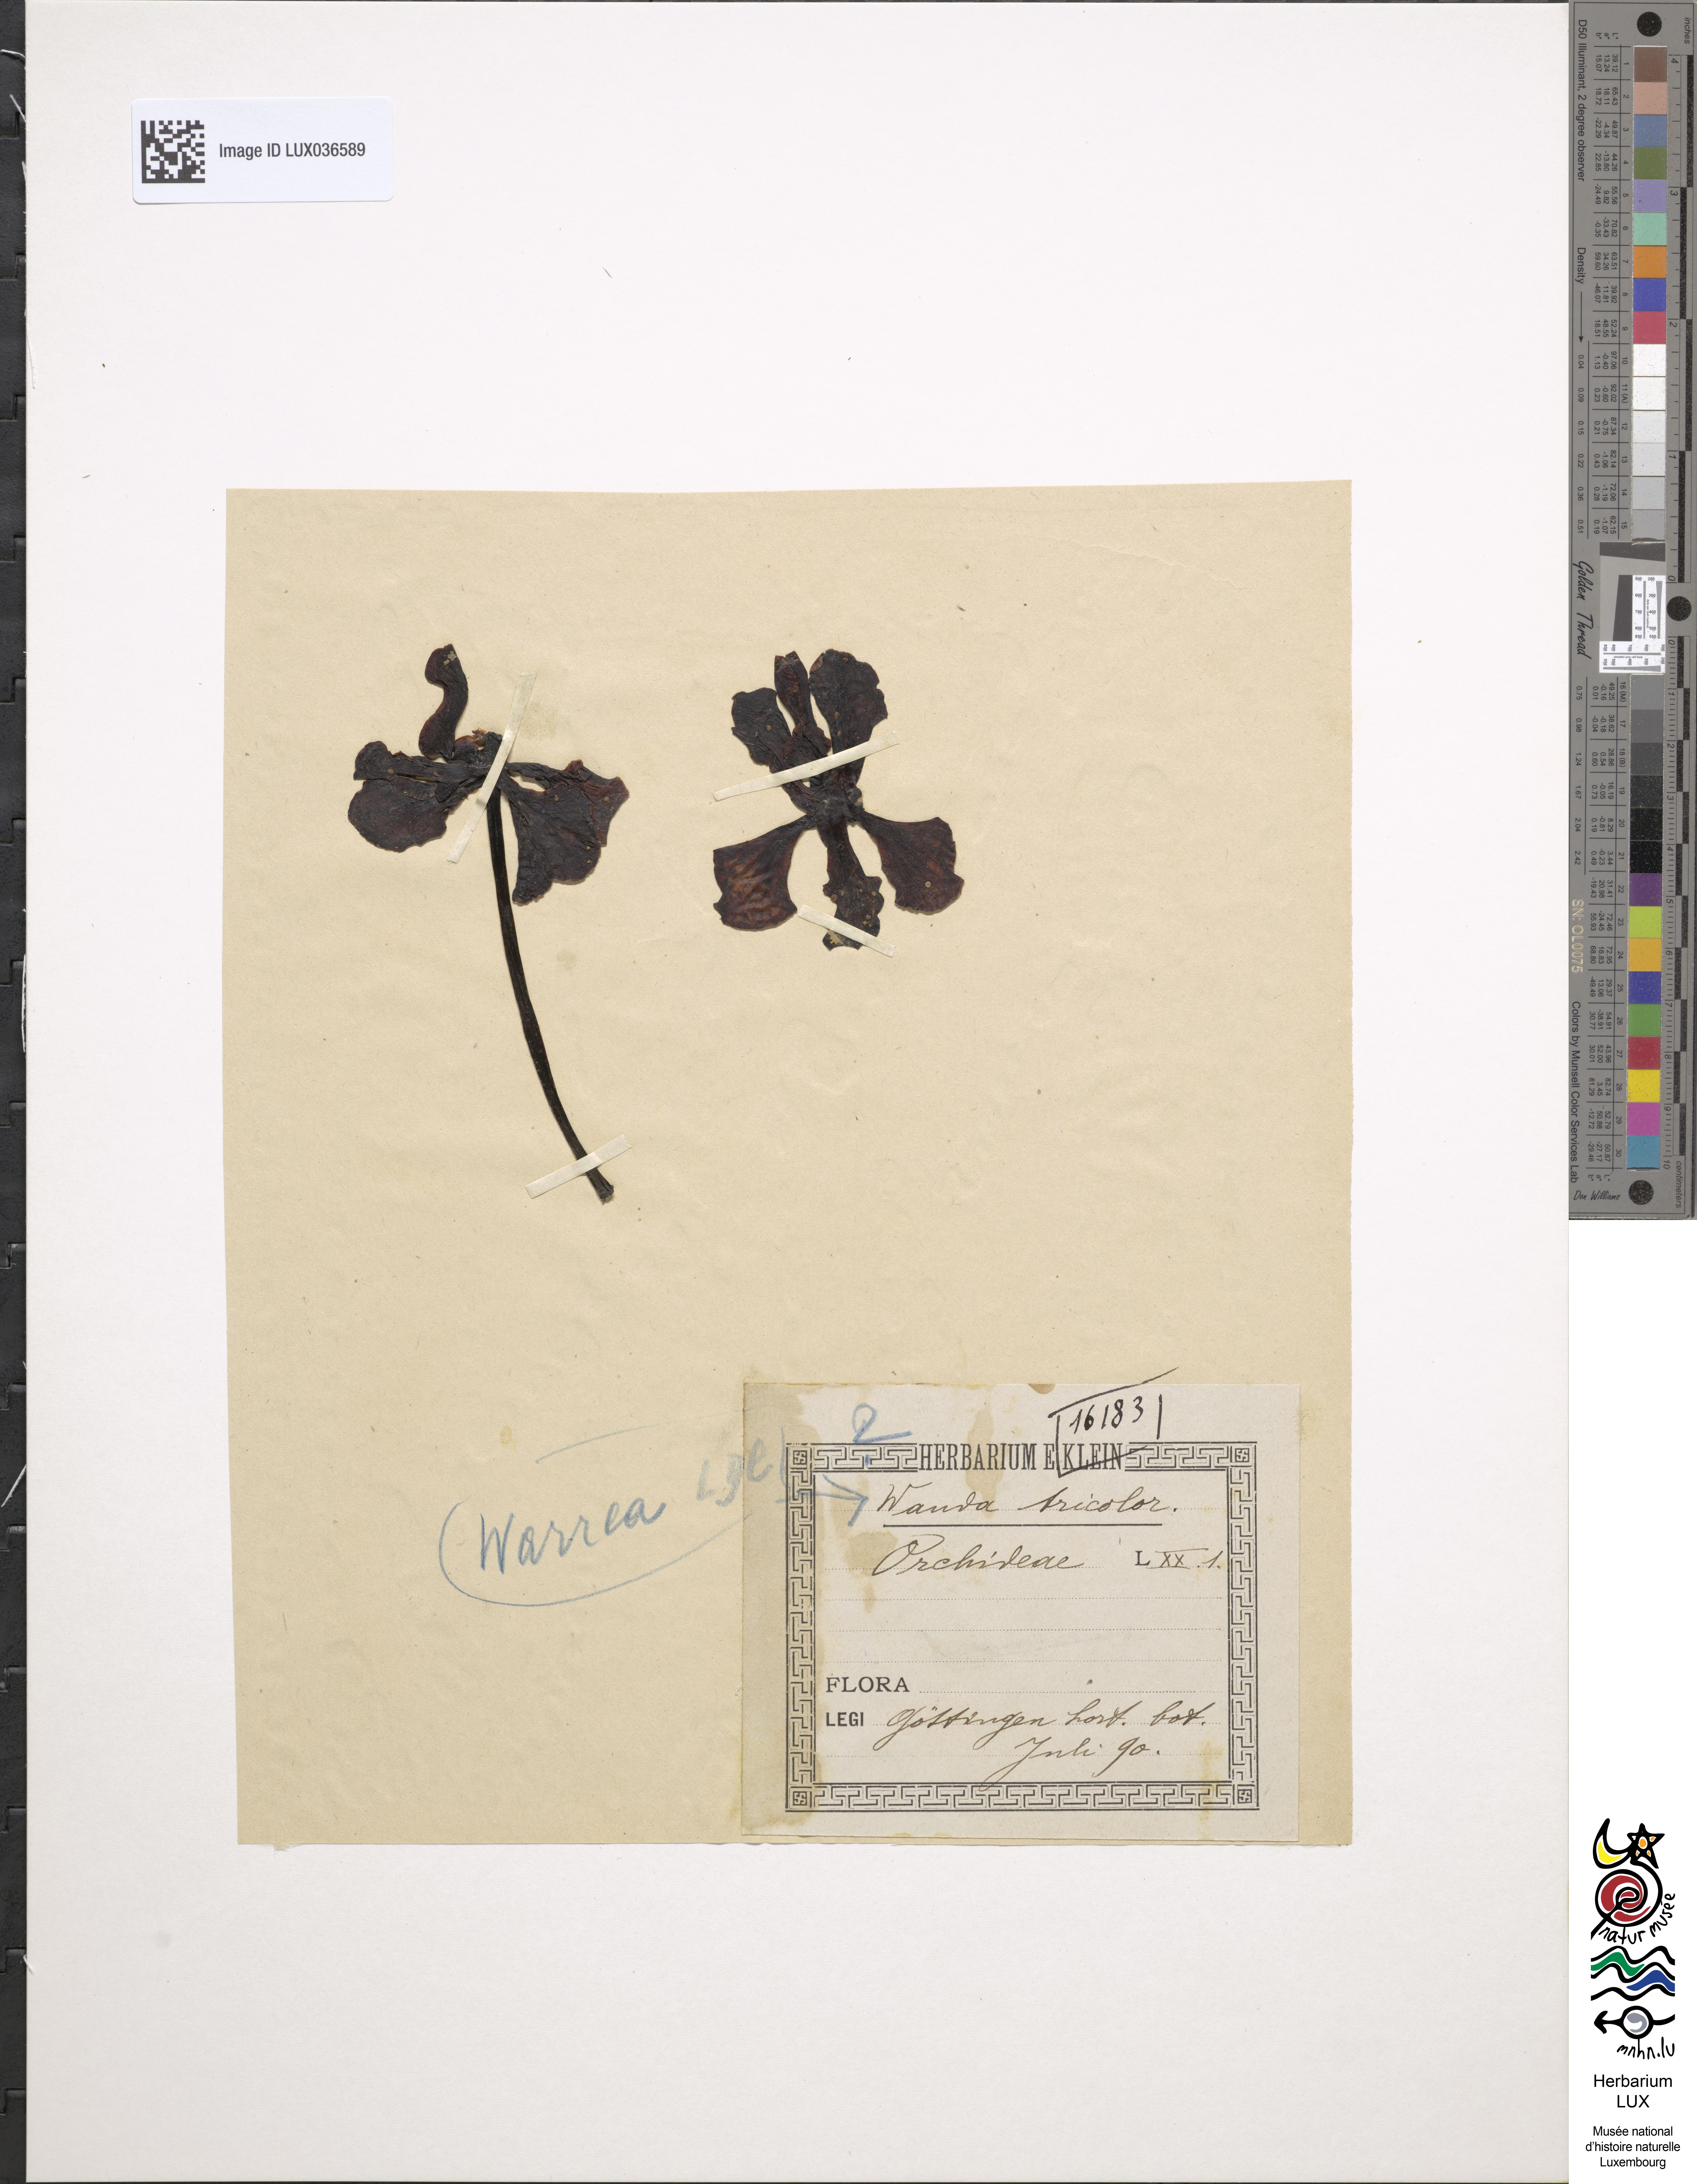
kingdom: Plantae
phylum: Tracheophyta
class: Liliopsida
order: Asparagales
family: Orchidaceae
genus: Warrea
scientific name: Warrea warreana
